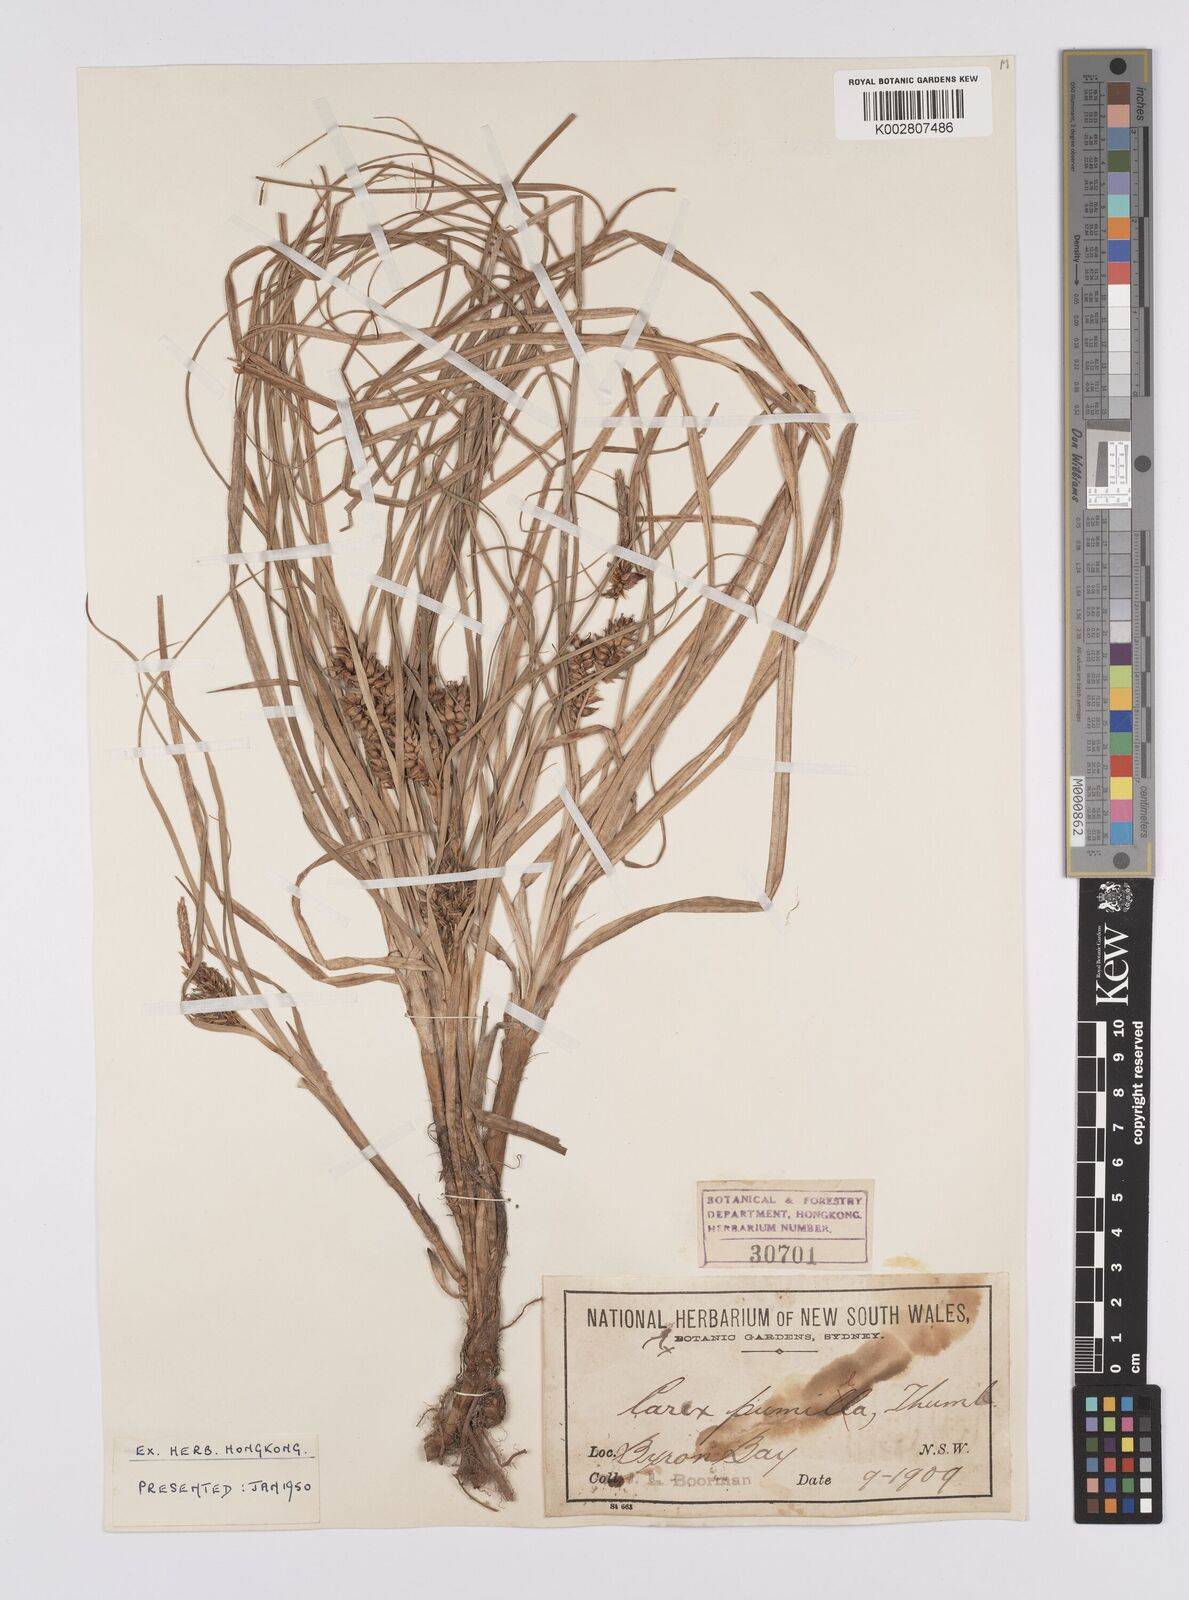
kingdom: Plantae
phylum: Tracheophyta
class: Liliopsida
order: Poales
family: Cyperaceae
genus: Carex
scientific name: Carex pumila
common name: Dwarf sedge
